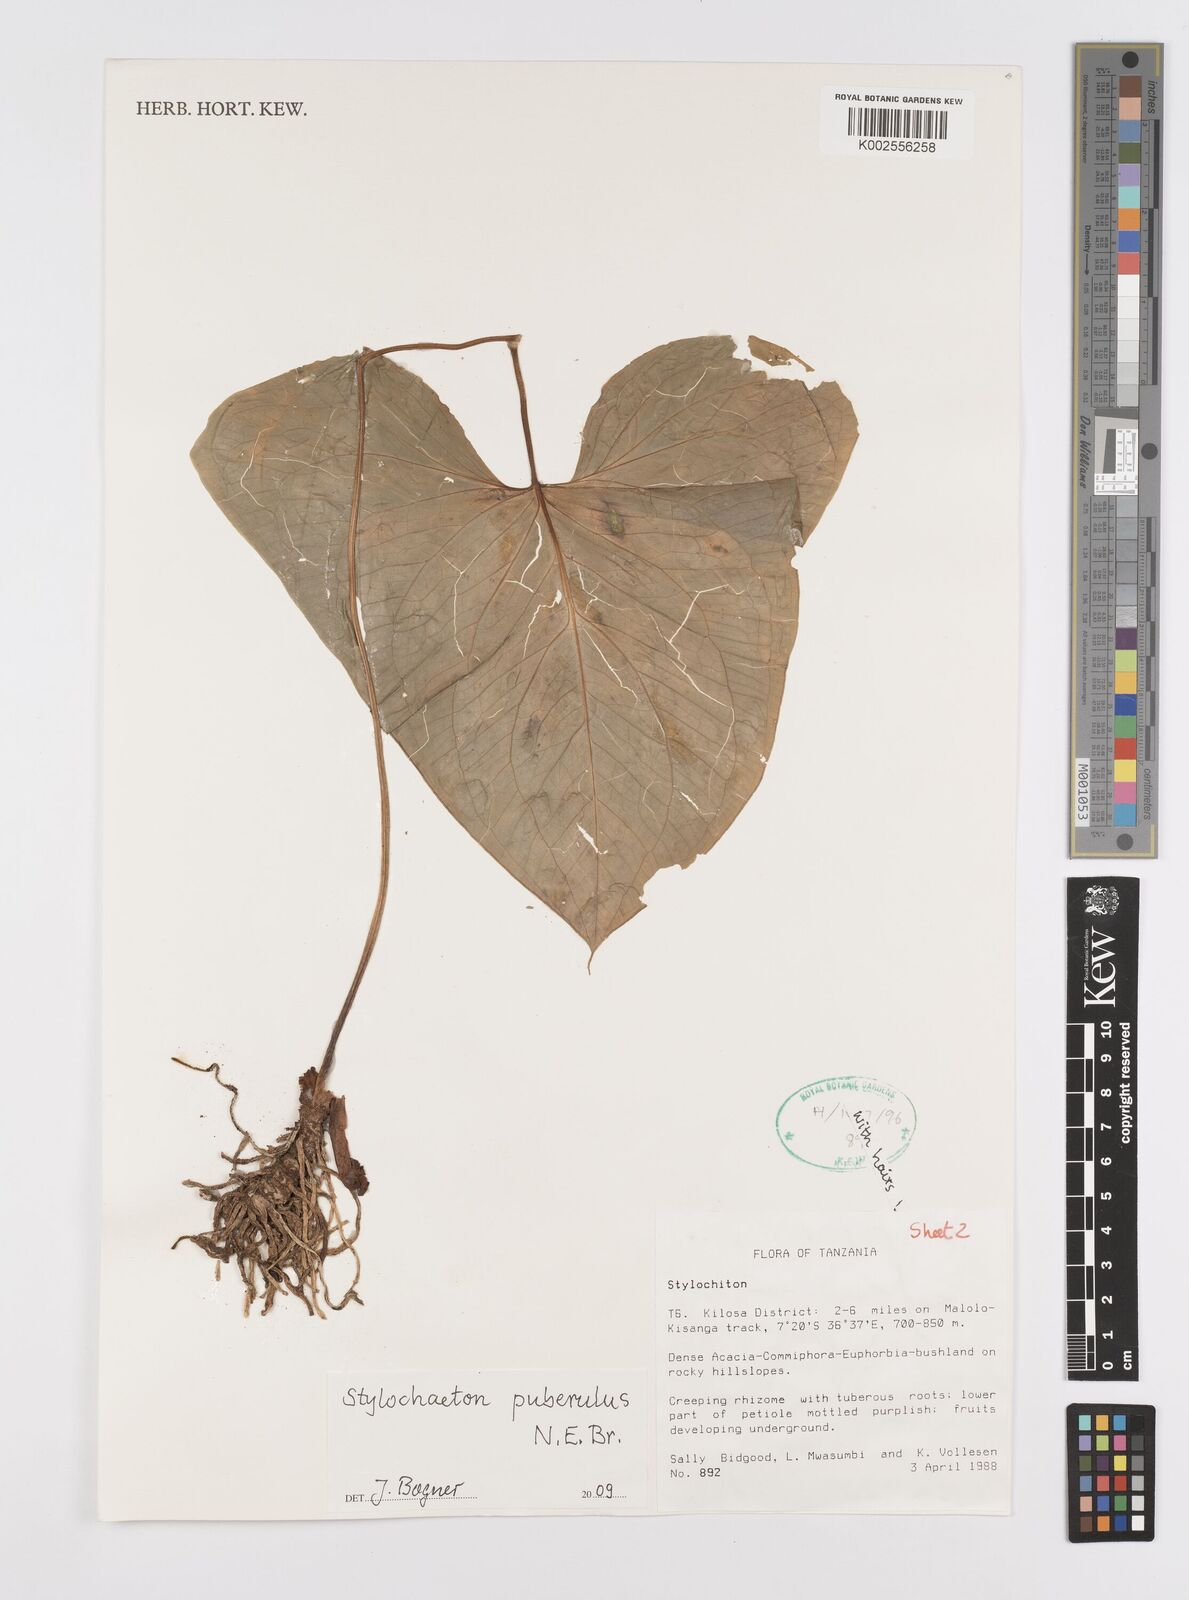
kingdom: Plantae
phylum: Tracheophyta
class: Liliopsida
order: Alismatales
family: Araceae
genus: Stylochaeton
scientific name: Stylochaeton puberulum
